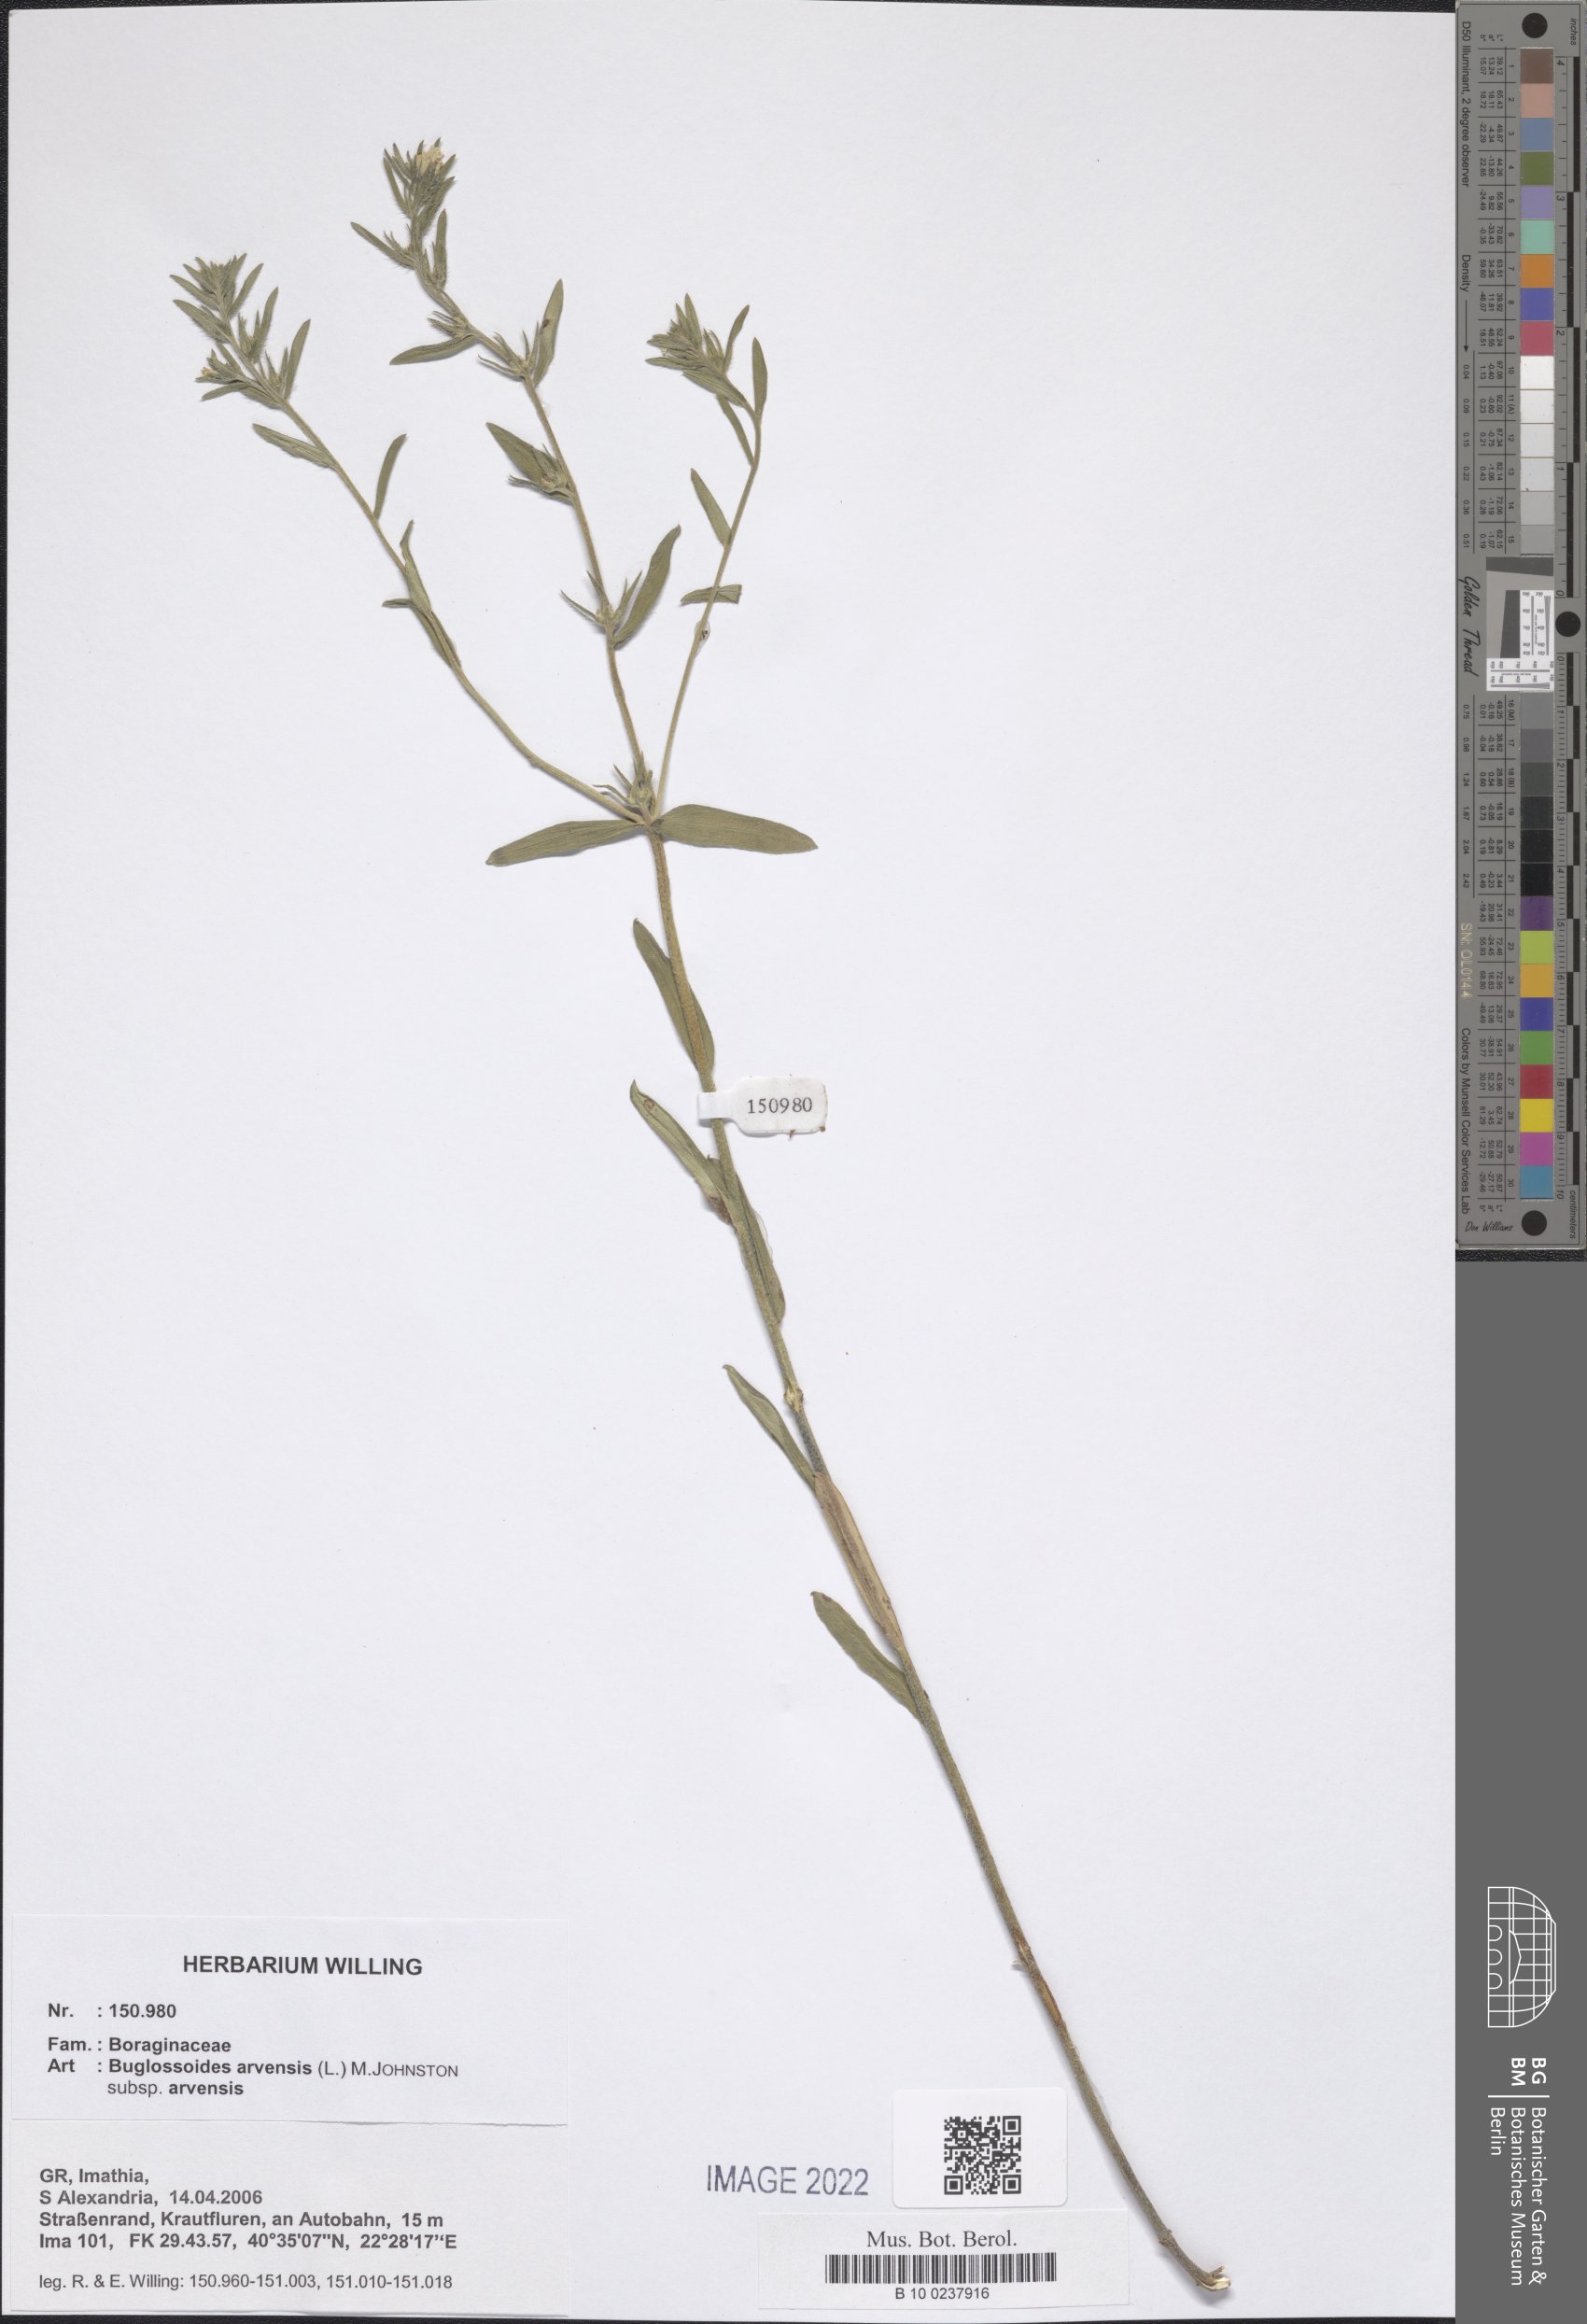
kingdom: Plantae
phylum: Tracheophyta
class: Magnoliopsida
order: Boraginales
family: Boraginaceae
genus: Buglossoides
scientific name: Buglossoides arvensis
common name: Corn gromwell
